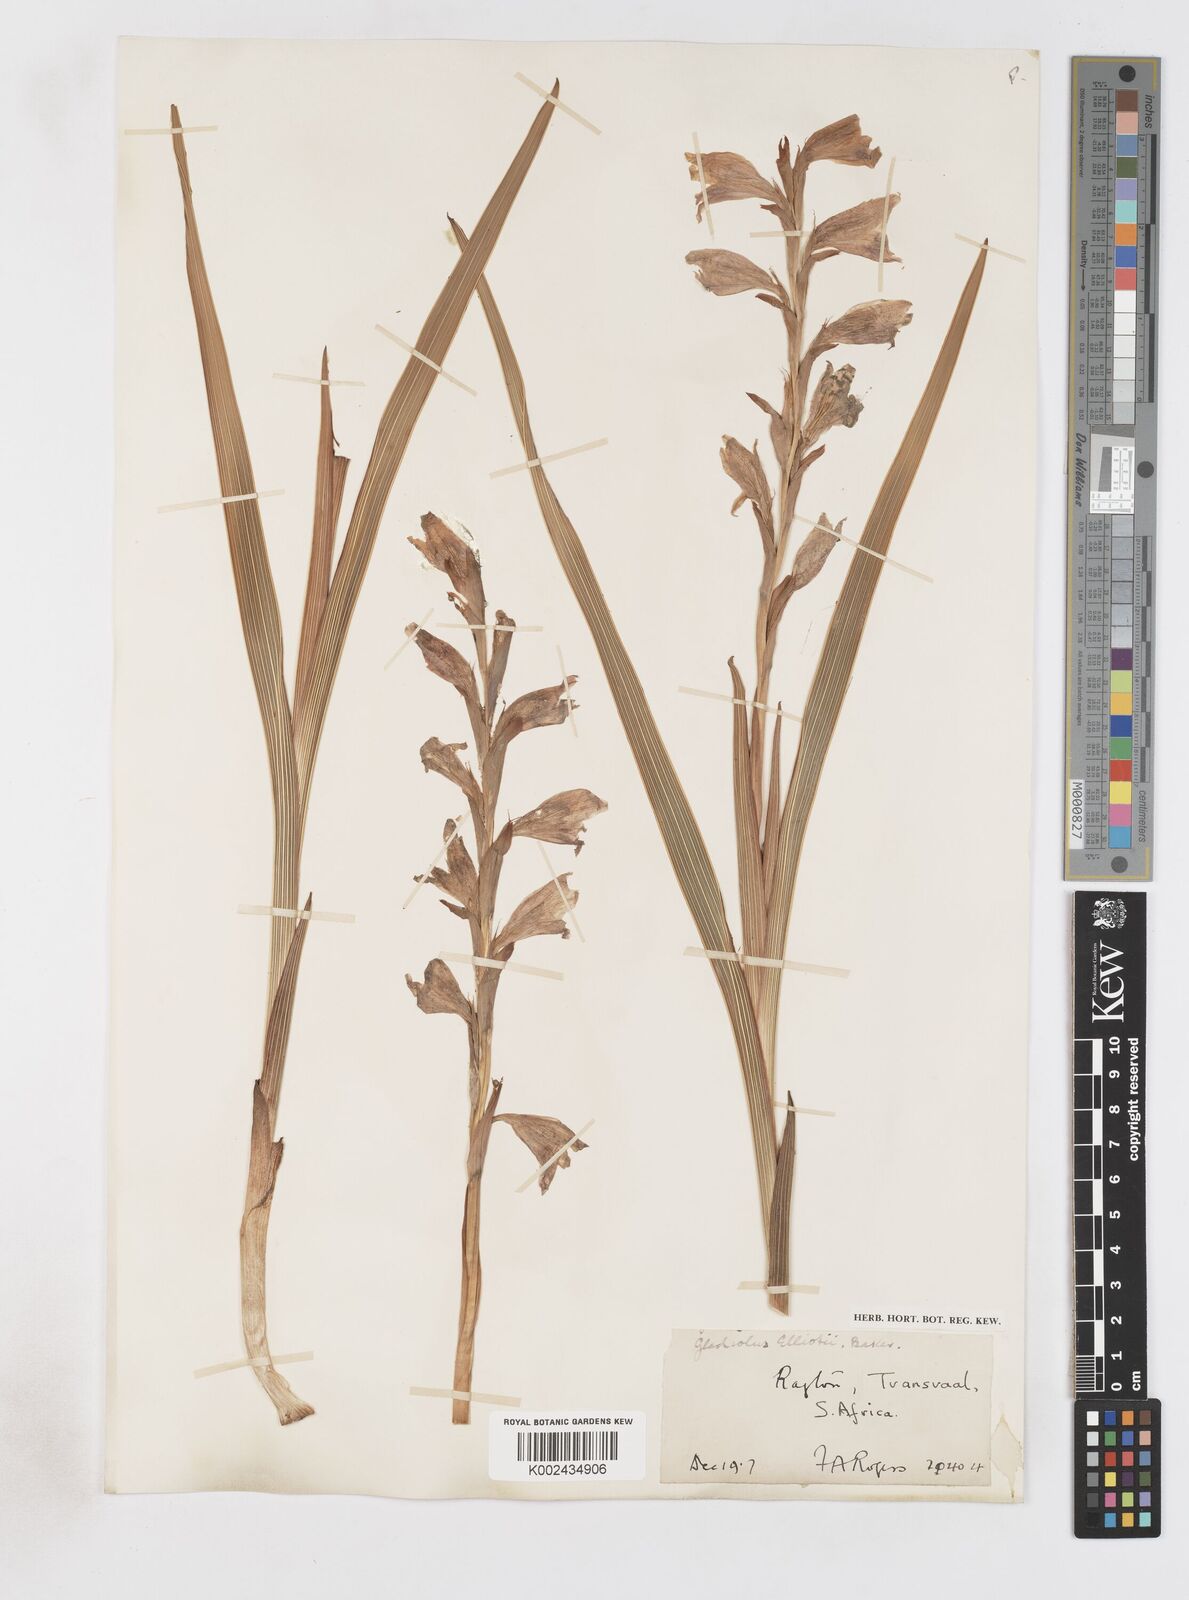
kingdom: Plantae
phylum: Tracheophyta
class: Liliopsida
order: Asparagales
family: Iridaceae
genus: Gladiolus
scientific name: Gladiolus elliotii
